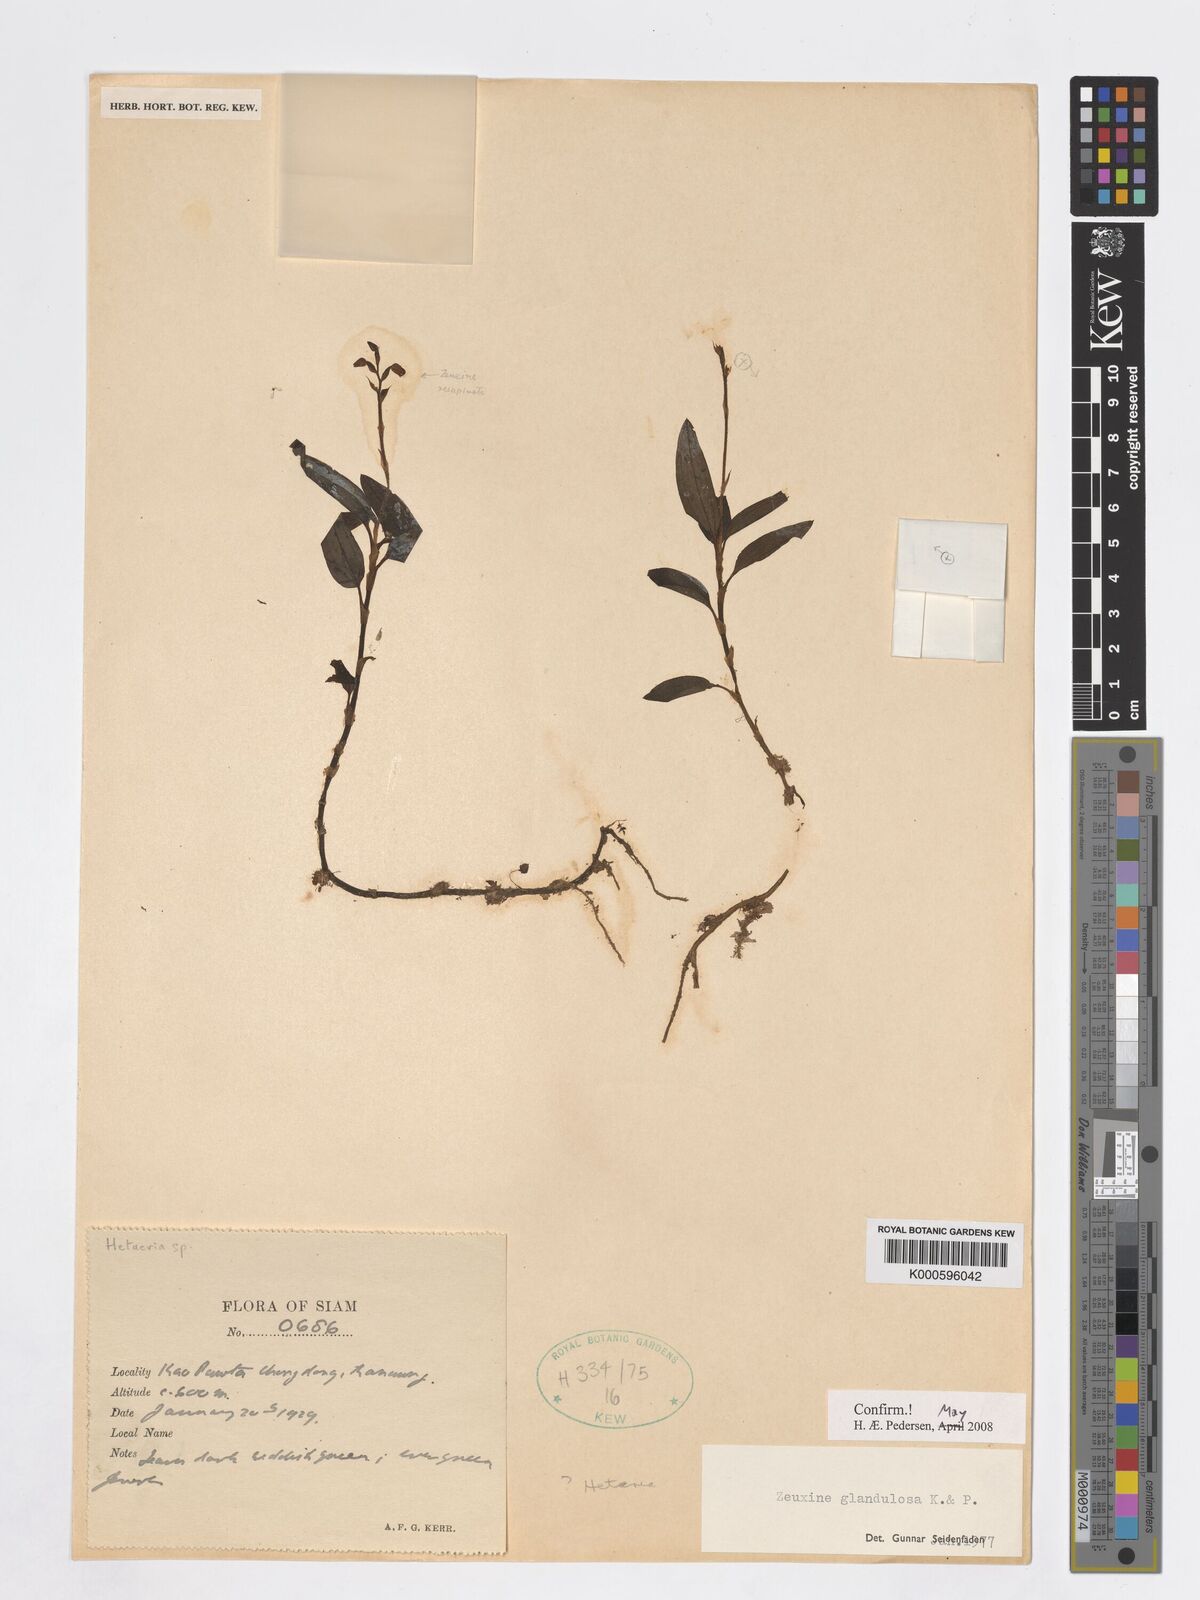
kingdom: Plantae
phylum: Tracheophyta
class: Liliopsida
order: Asparagales
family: Orchidaceae
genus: Zeuxine
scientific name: Zeuxine glandulosa
